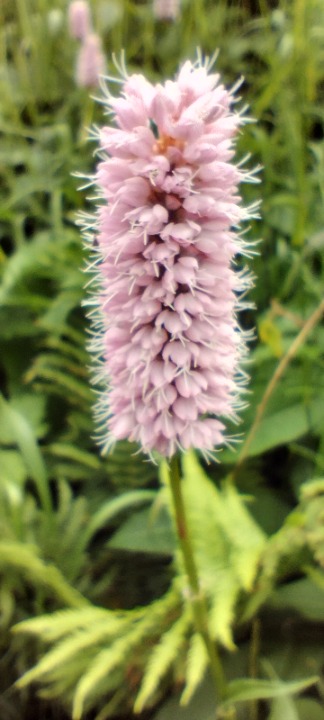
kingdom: Plantae
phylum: Tracheophyta
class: Magnoliopsida
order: Caryophyllales
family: Polygonaceae
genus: Bistorta
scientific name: Bistorta officinalis
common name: Slangeurt
